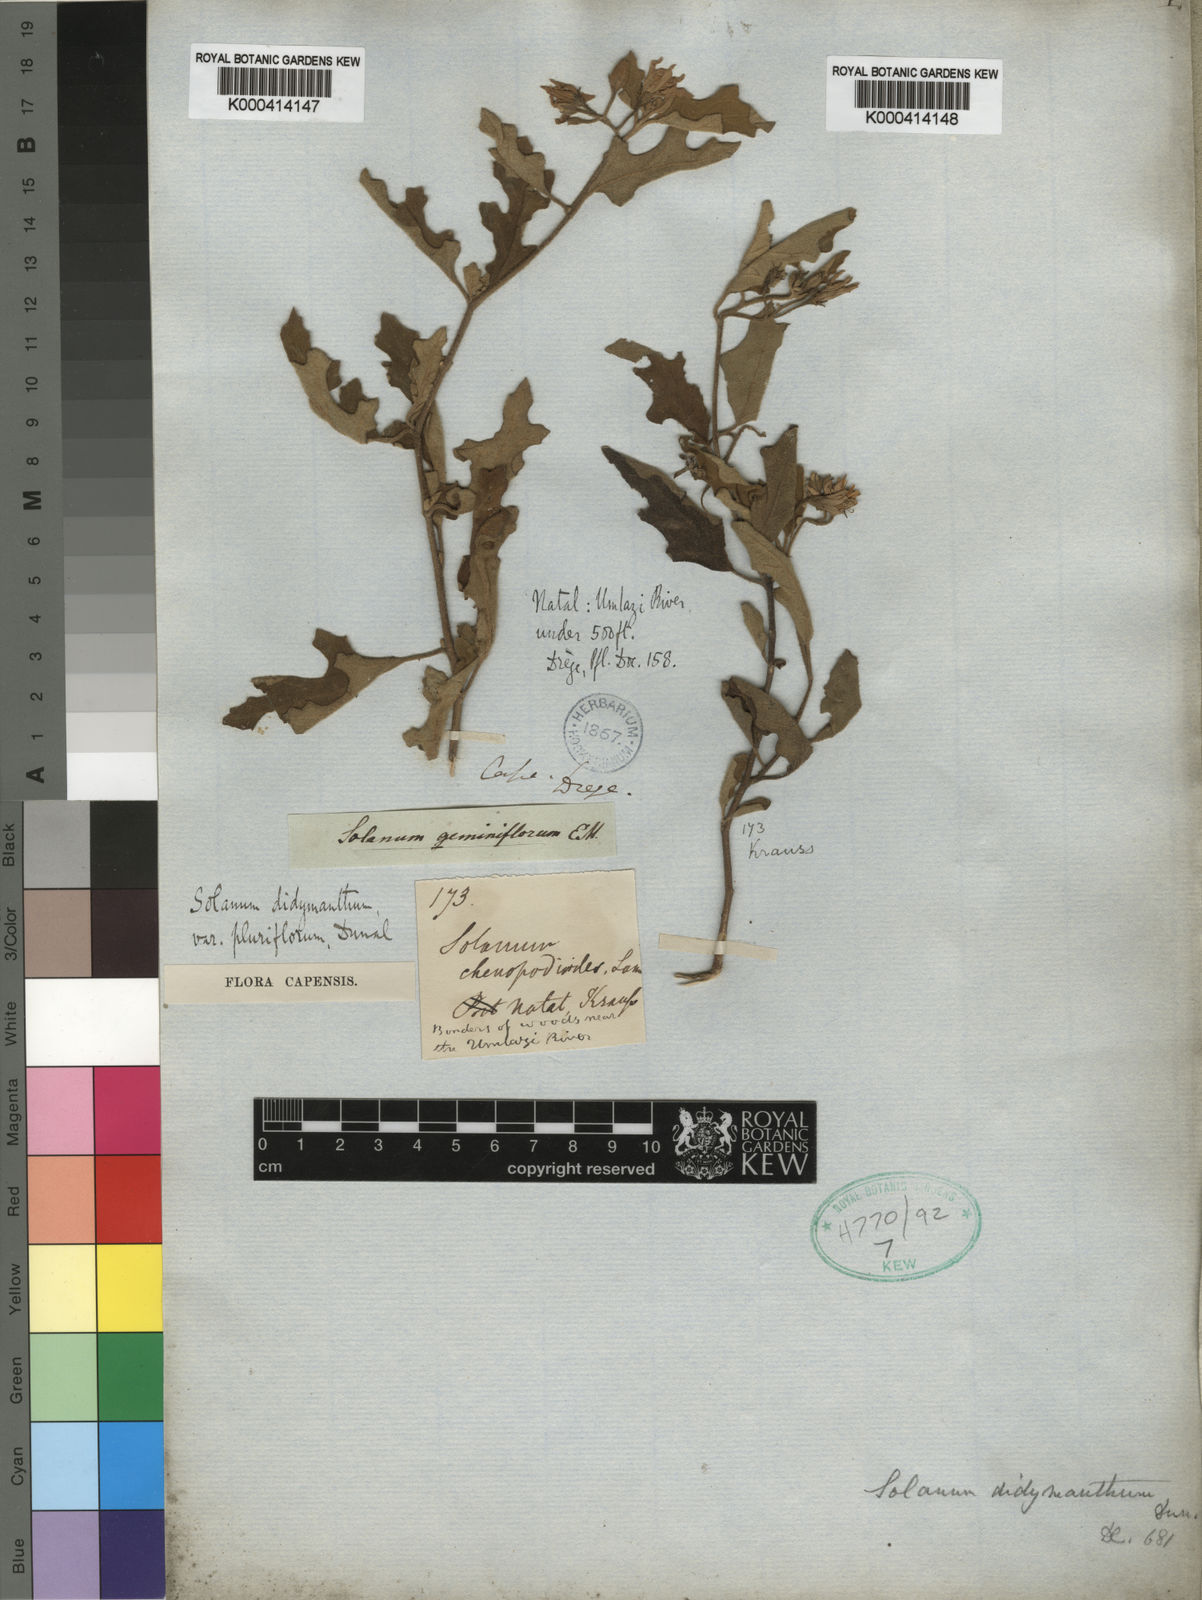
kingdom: Plantae
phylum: Tracheophyta
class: Magnoliopsida
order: Solanales
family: Solanaceae
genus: Solanum
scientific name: Solanum rubetorum
